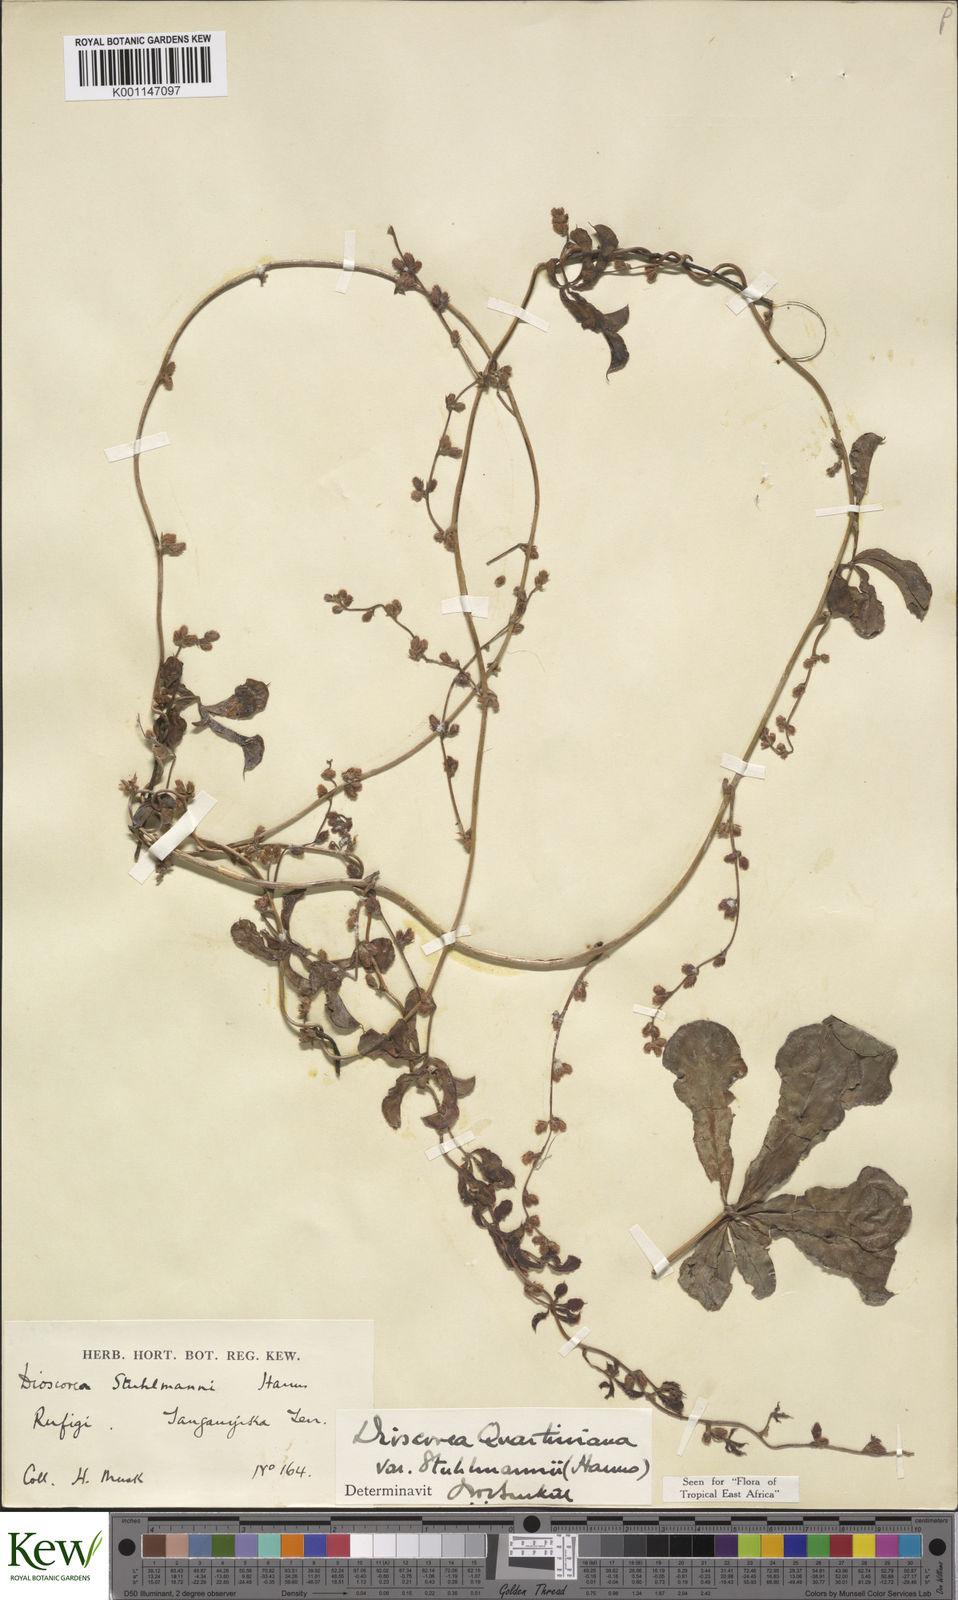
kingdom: Plantae
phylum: Tracheophyta
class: Liliopsida
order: Dioscoreales
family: Dioscoreaceae
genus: Dioscorea
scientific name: Dioscorea quartiniana
